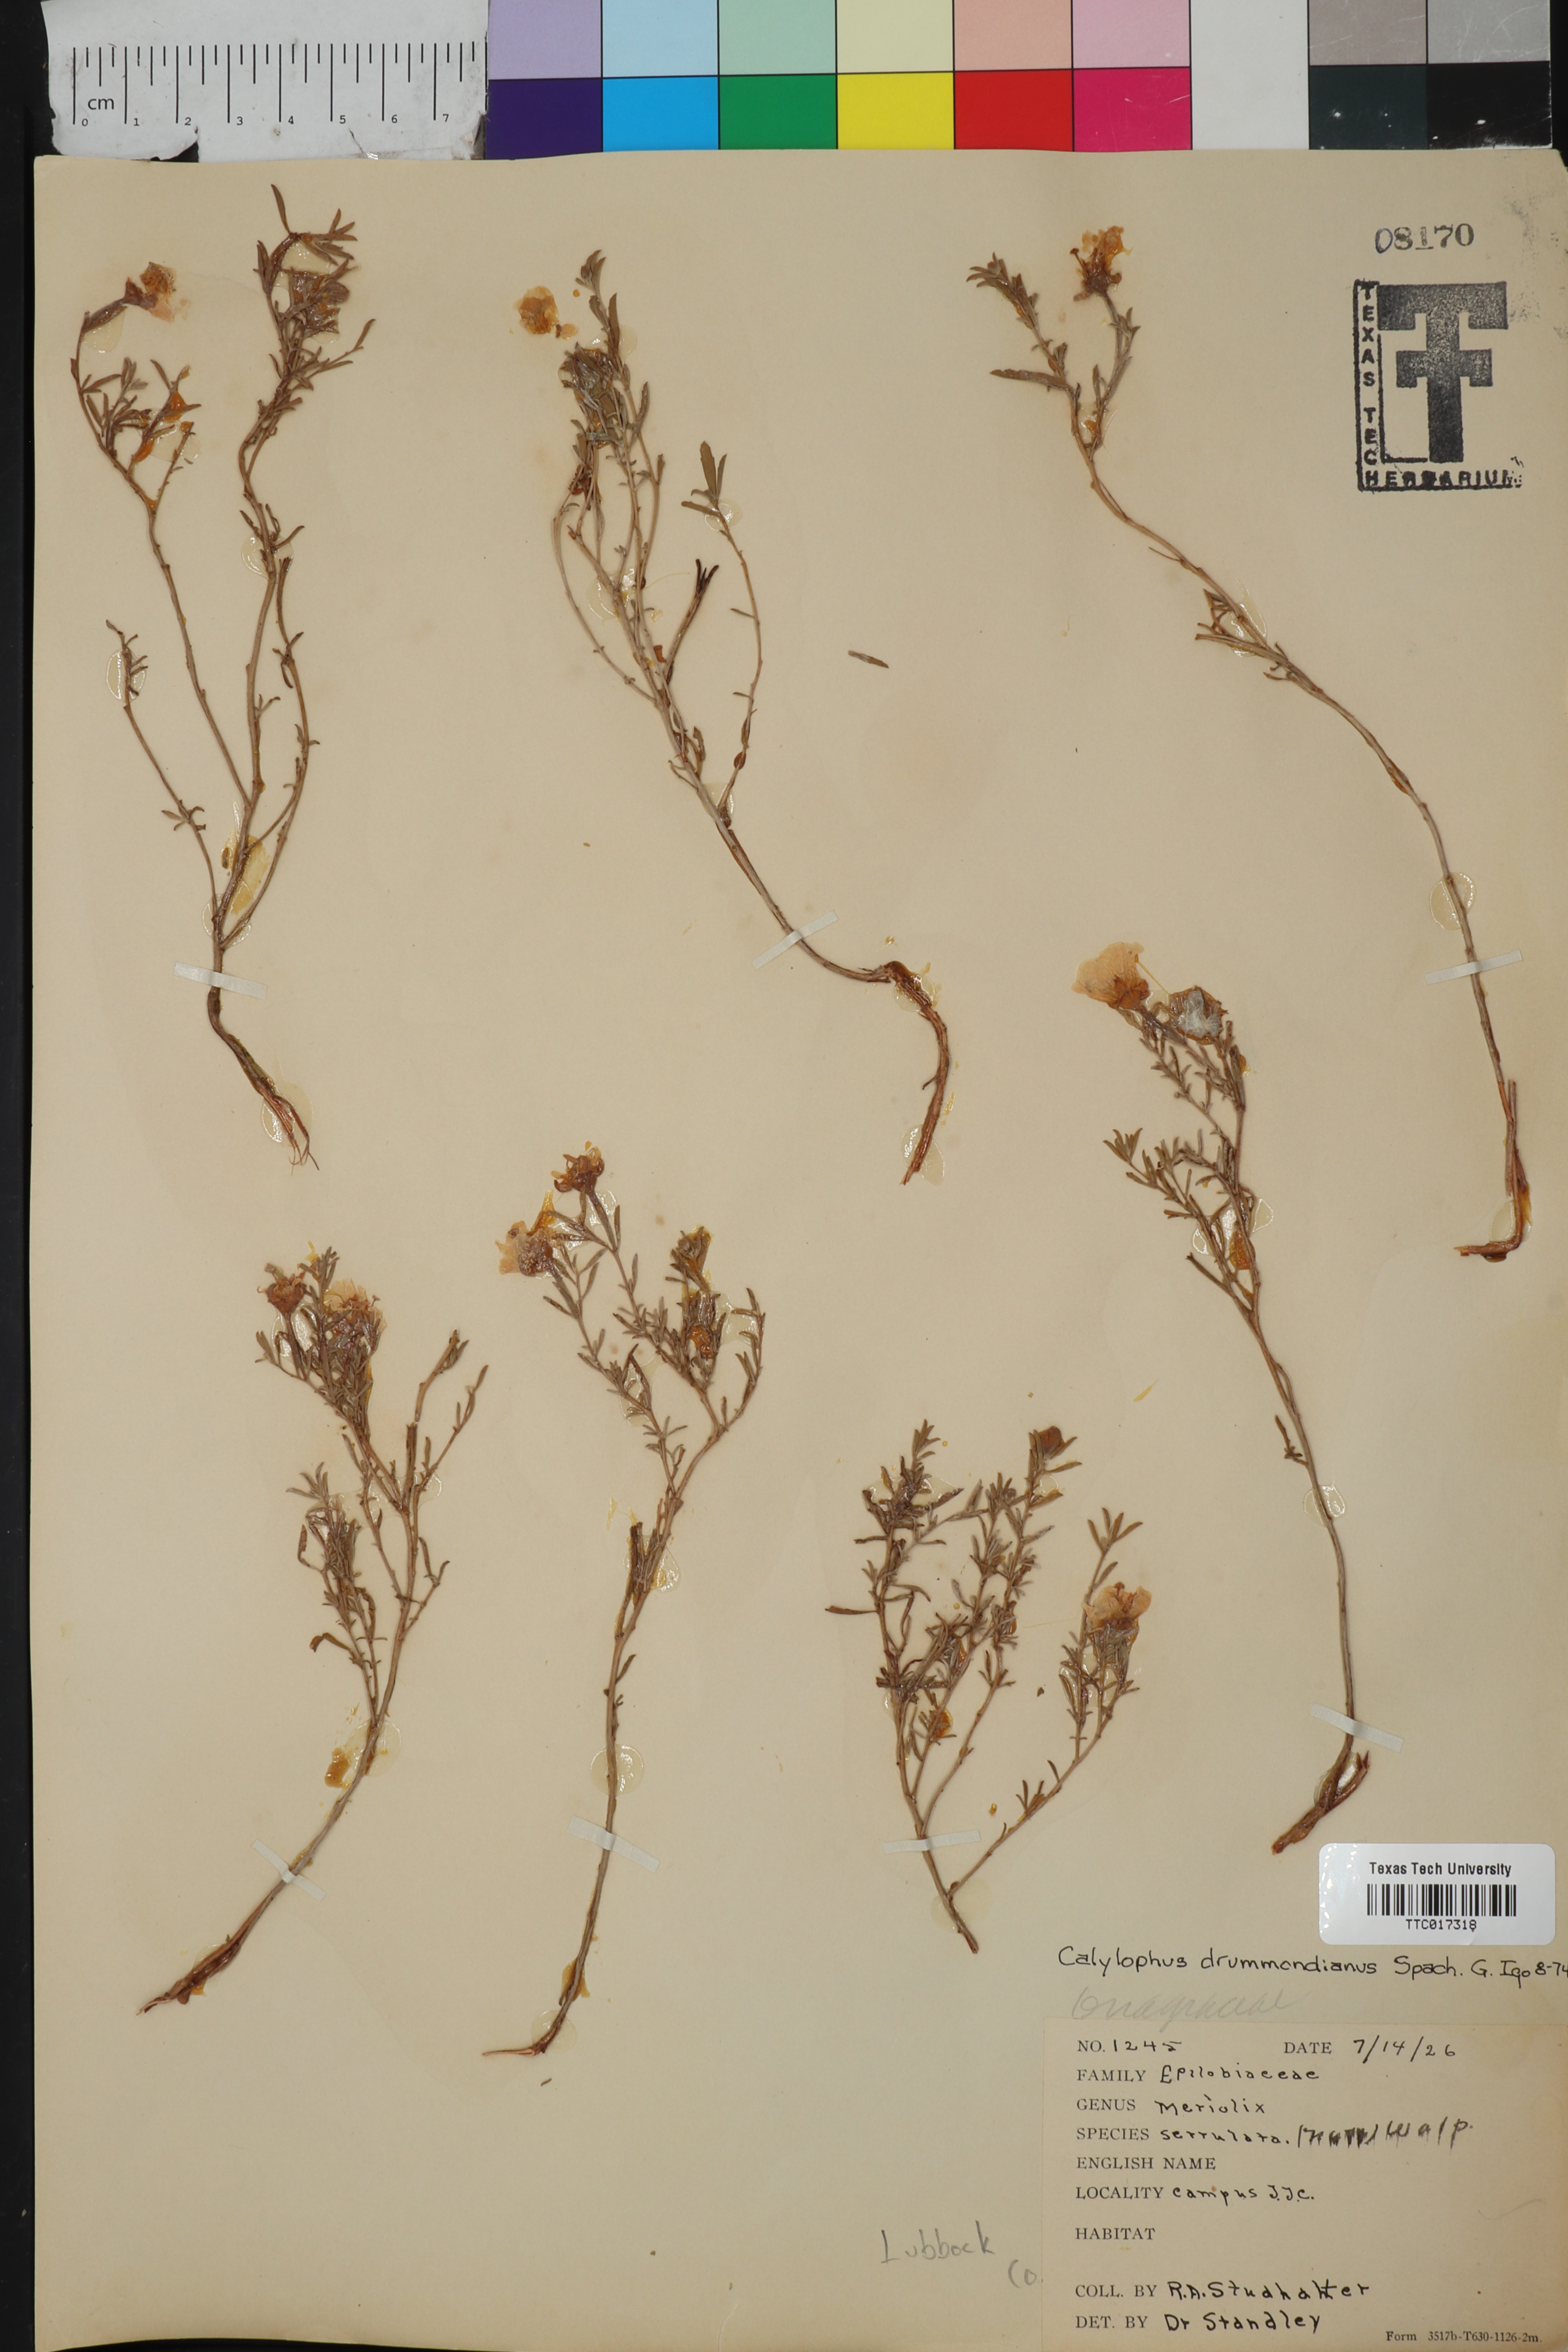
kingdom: Plantae
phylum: Tracheophyta
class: Magnoliopsida
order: Myrtales
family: Onagraceae
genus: Oenothera
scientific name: Oenothera serrulata
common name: Half-shrub calylophus
